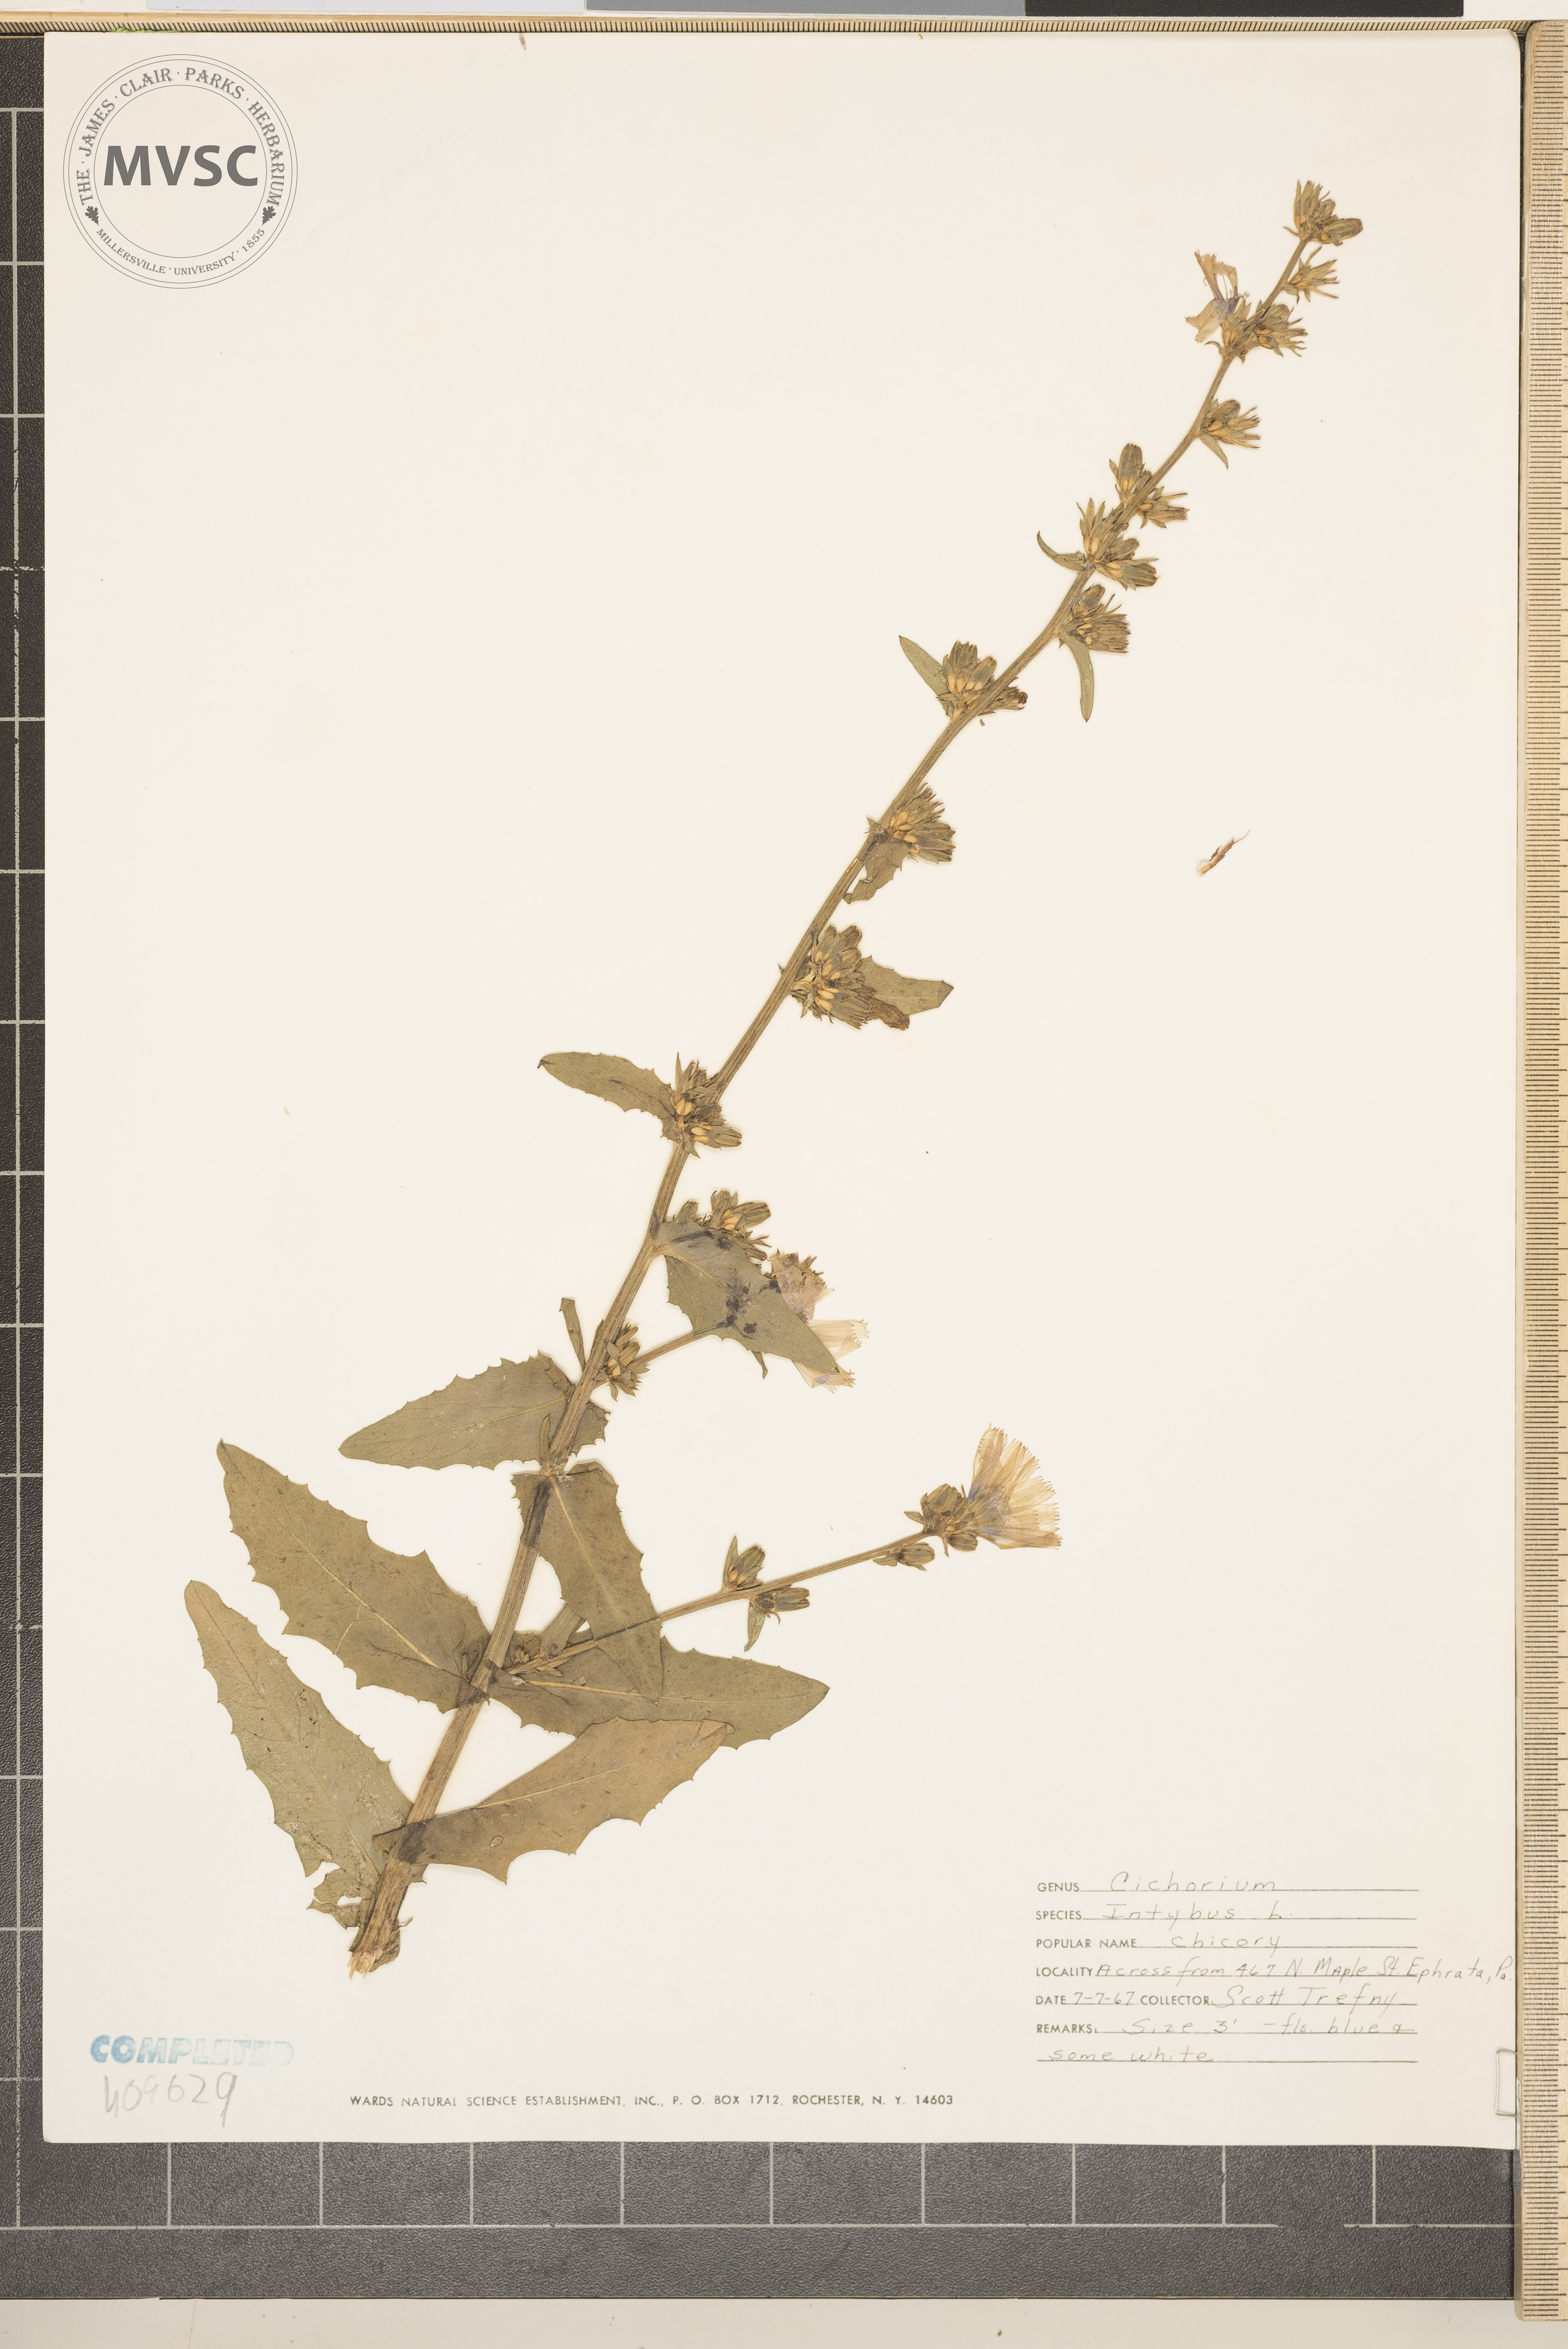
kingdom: Plantae
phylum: Tracheophyta
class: Magnoliopsida
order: Asterales
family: Asteraceae
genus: Cichorium
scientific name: Cichorium intybus
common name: Chicory
